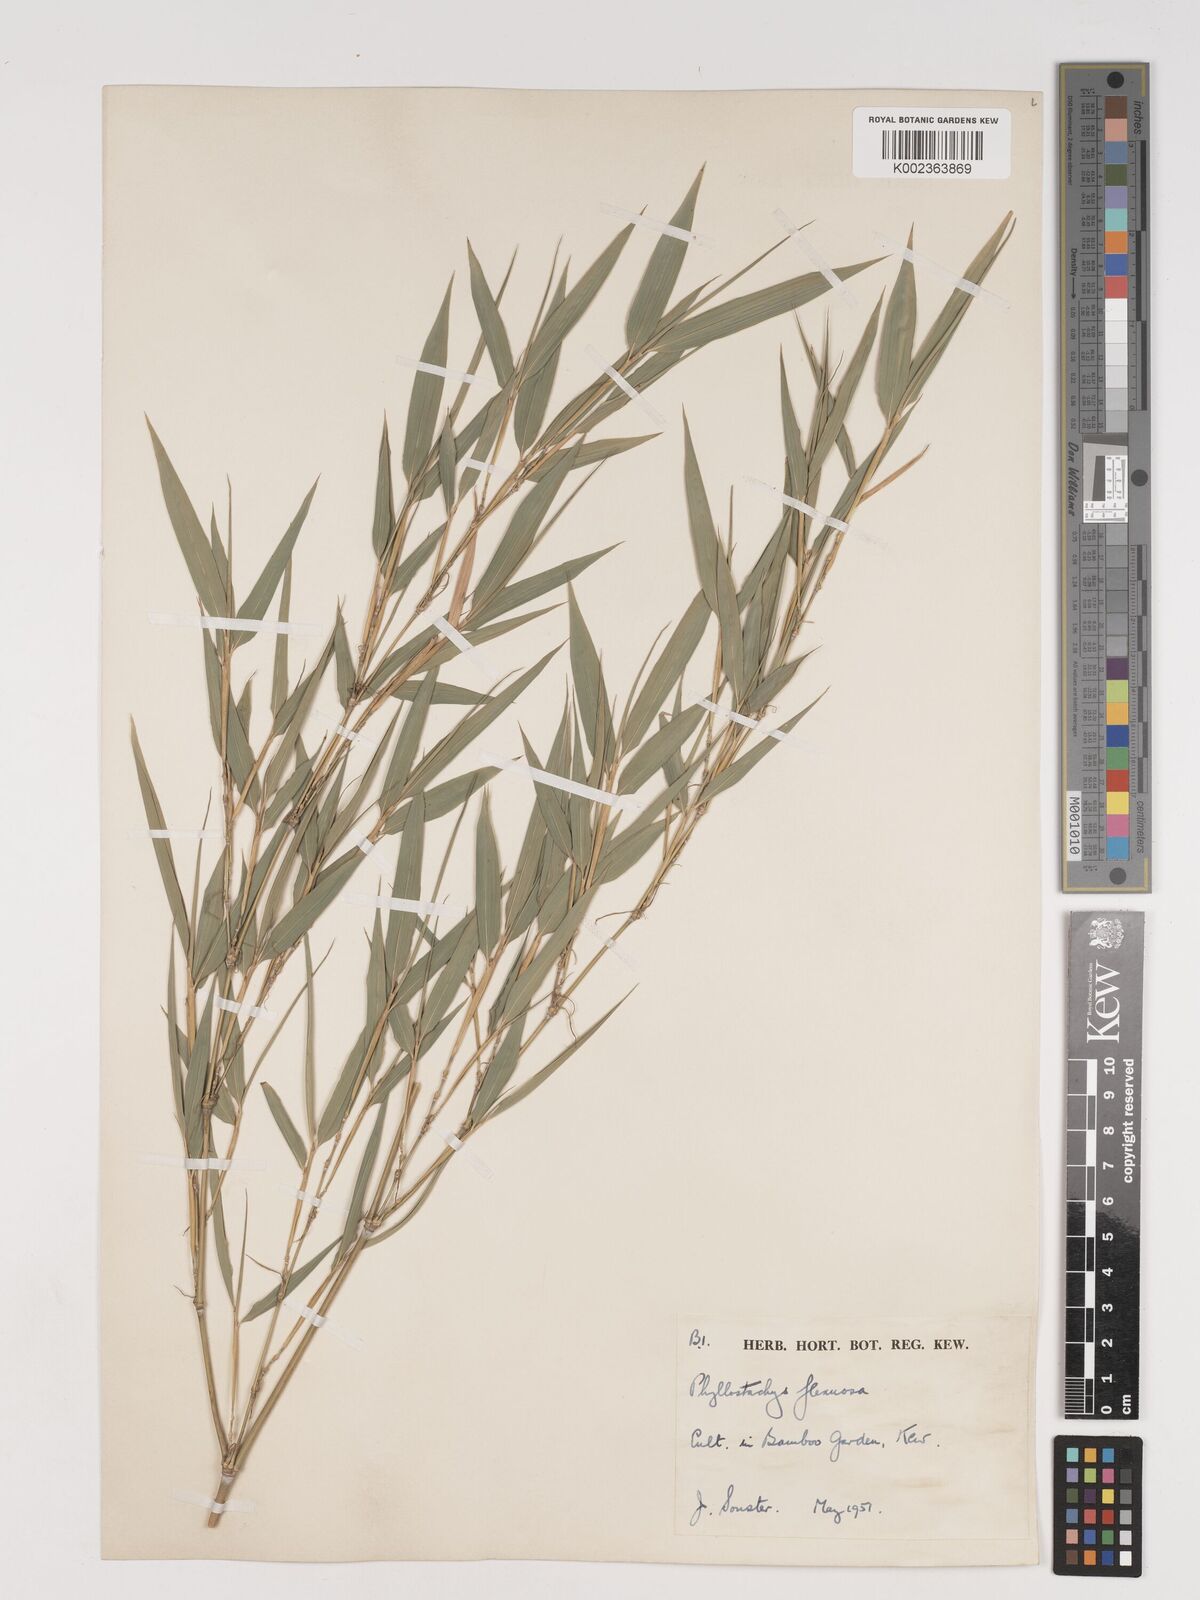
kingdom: Plantae
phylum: Tracheophyta
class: Liliopsida
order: Poales
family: Poaceae
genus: Phyllostachys
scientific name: Phyllostachys flexuosa
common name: Drooping timber bamboo
